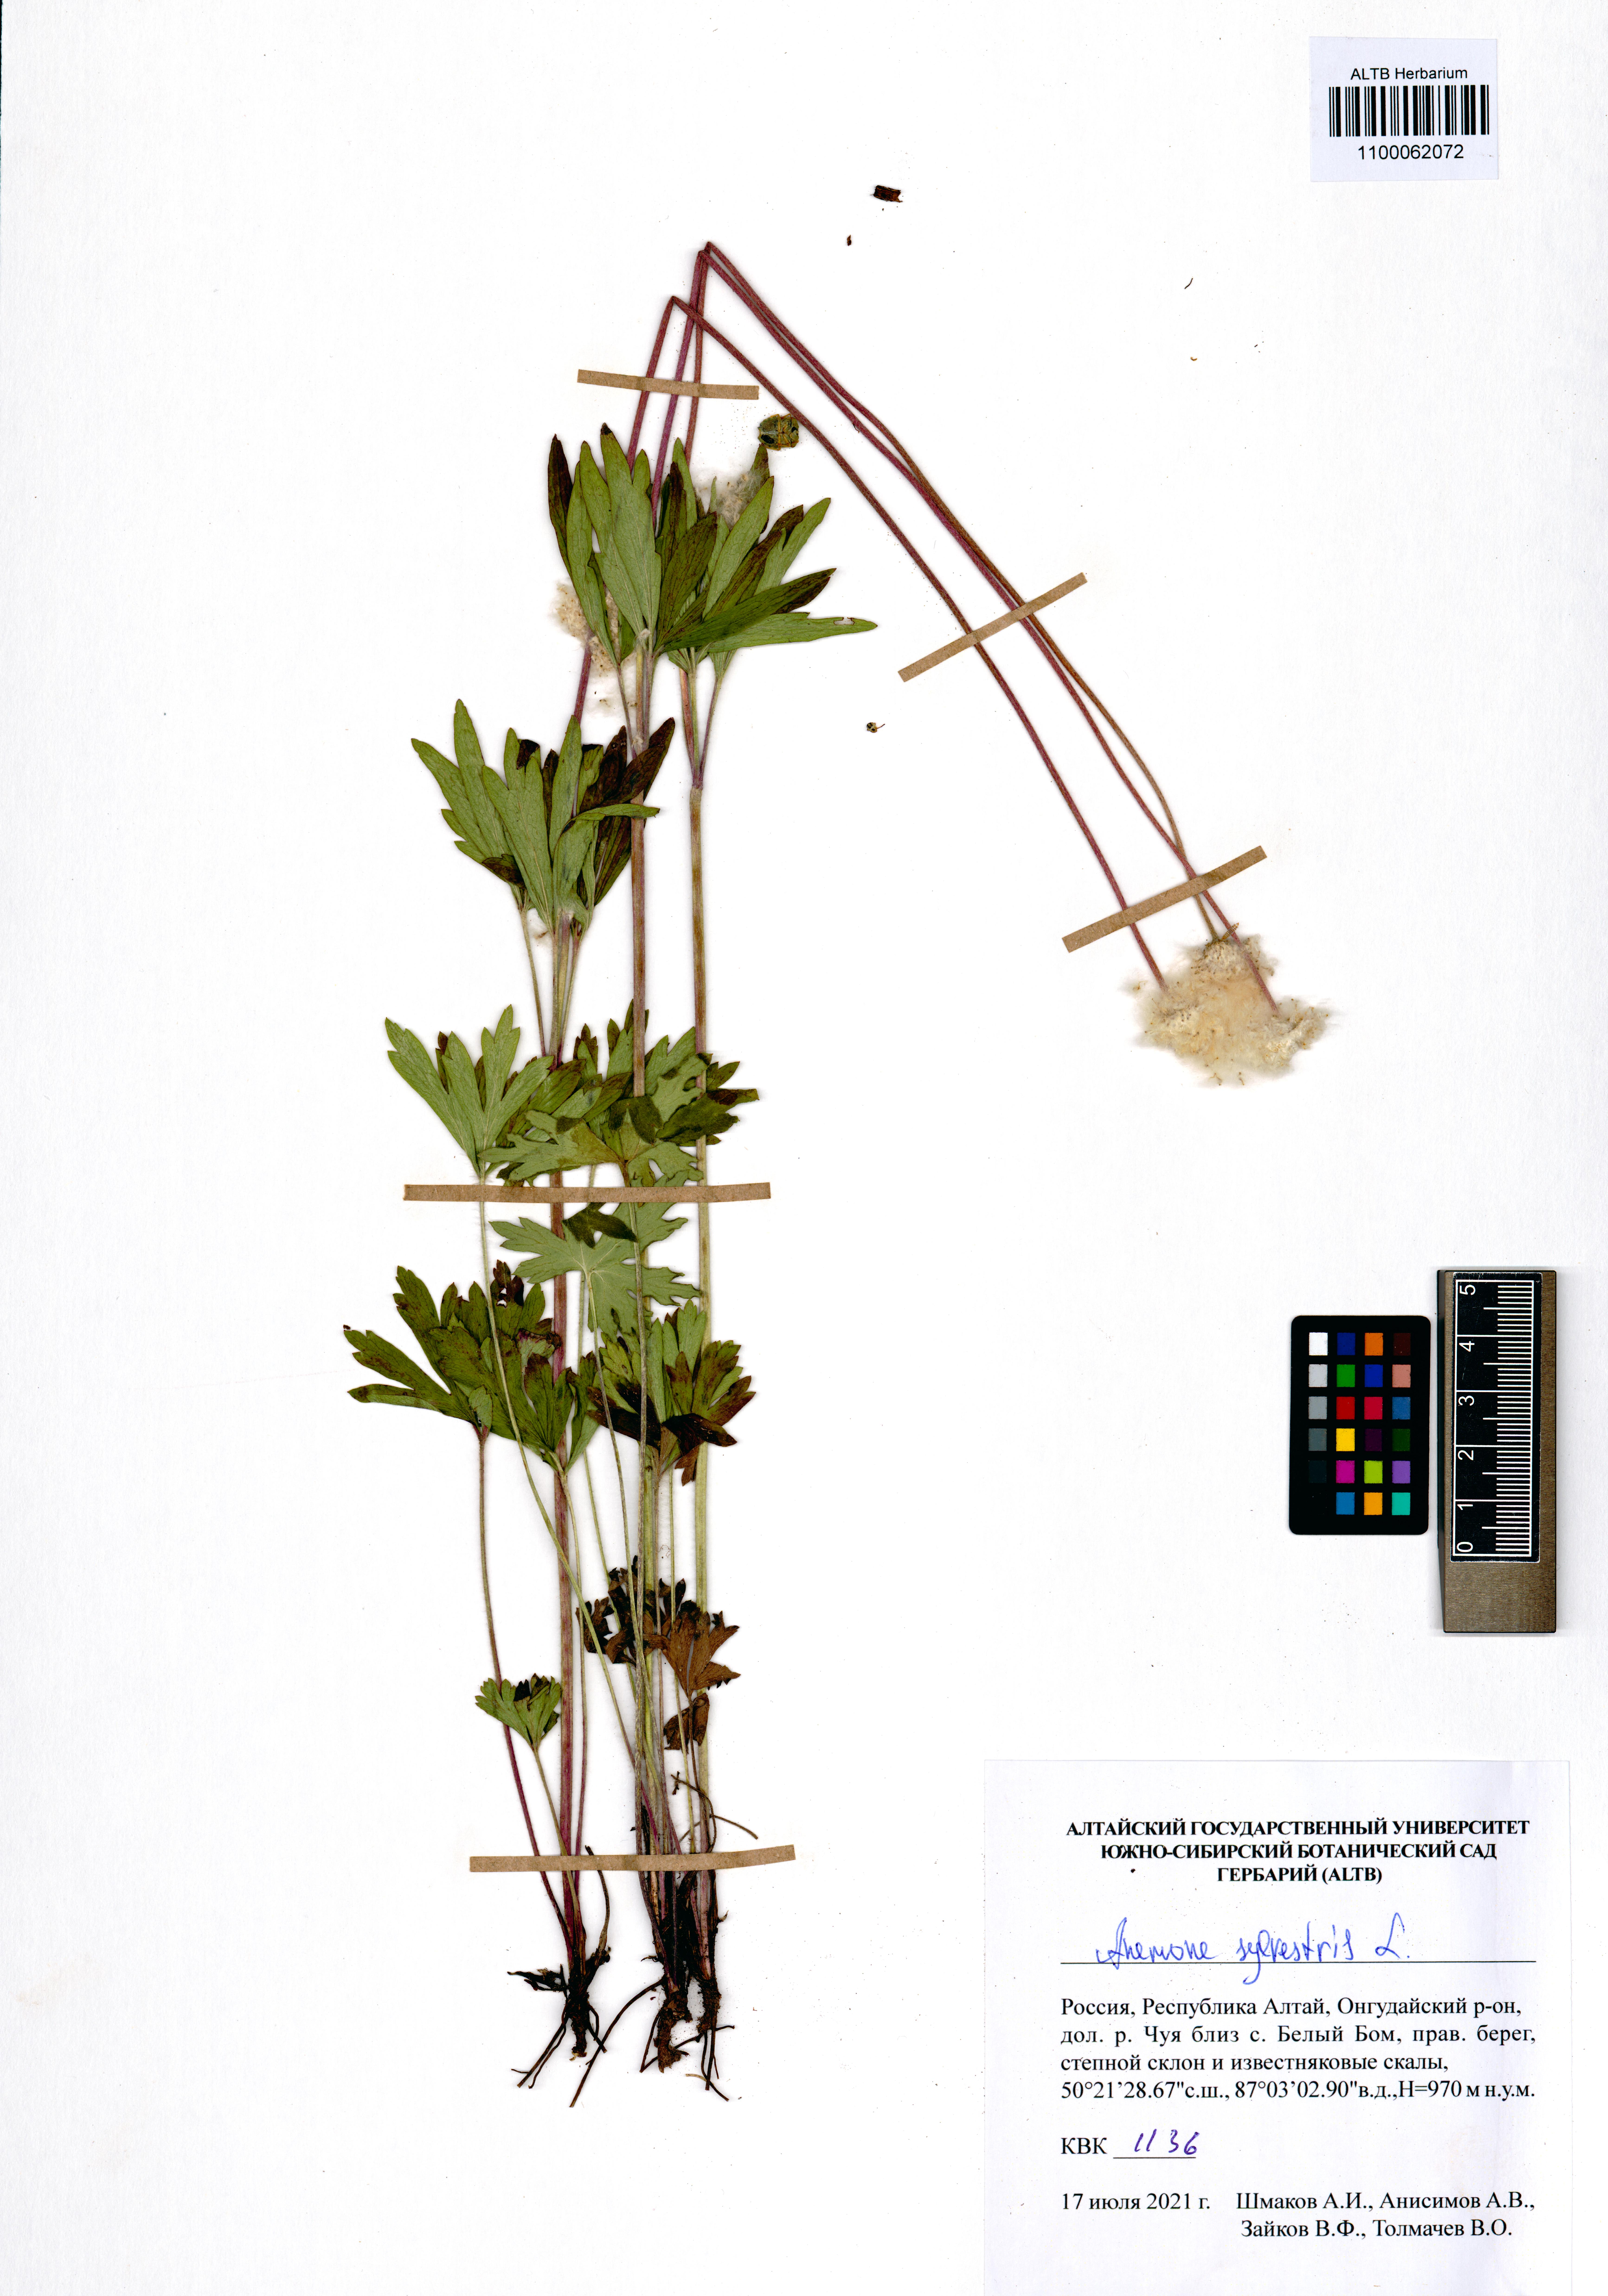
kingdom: Plantae
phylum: Tracheophyta
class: Magnoliopsida
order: Ranunculales
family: Ranunculaceae
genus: Anemone
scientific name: Anemone sylvestris
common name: Snowdrop anemone
